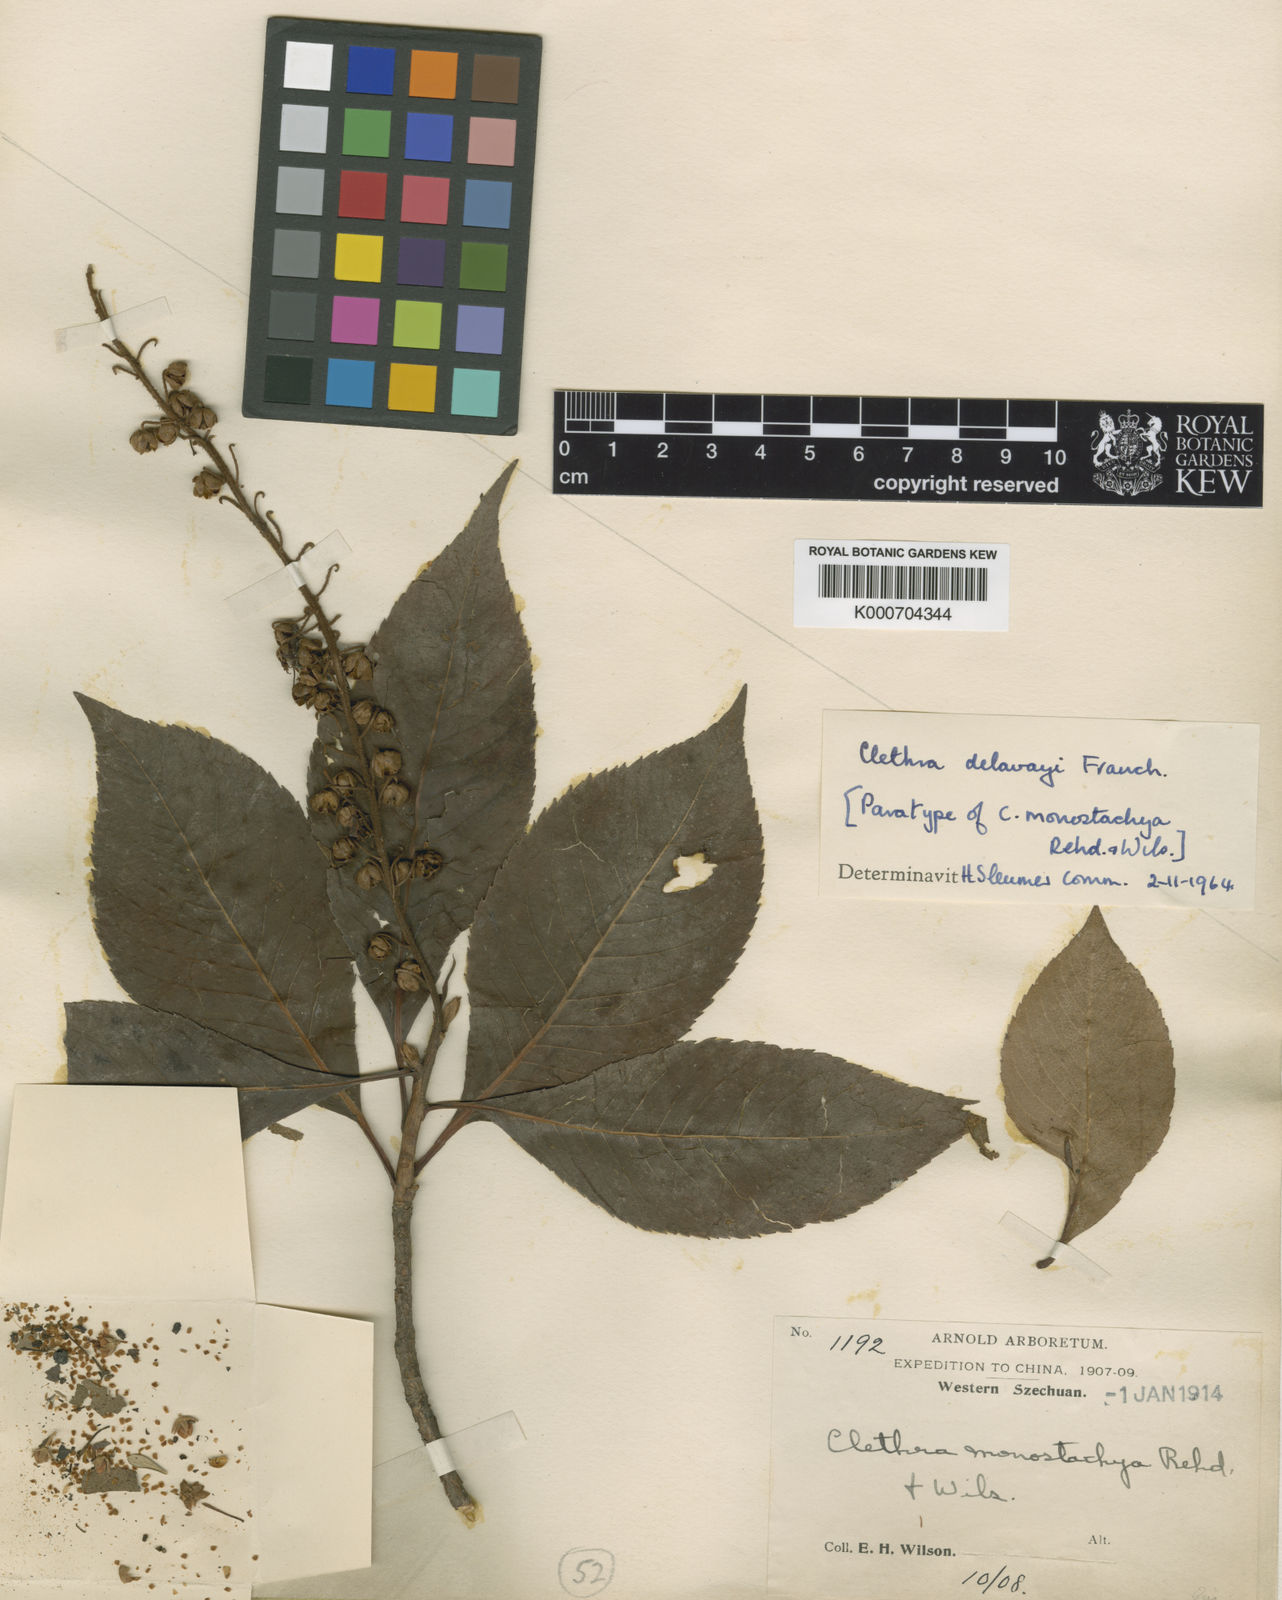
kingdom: Plantae
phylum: Tracheophyta
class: Magnoliopsida
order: Ericales
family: Clethraceae
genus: Clethra
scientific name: Clethra delavayi
